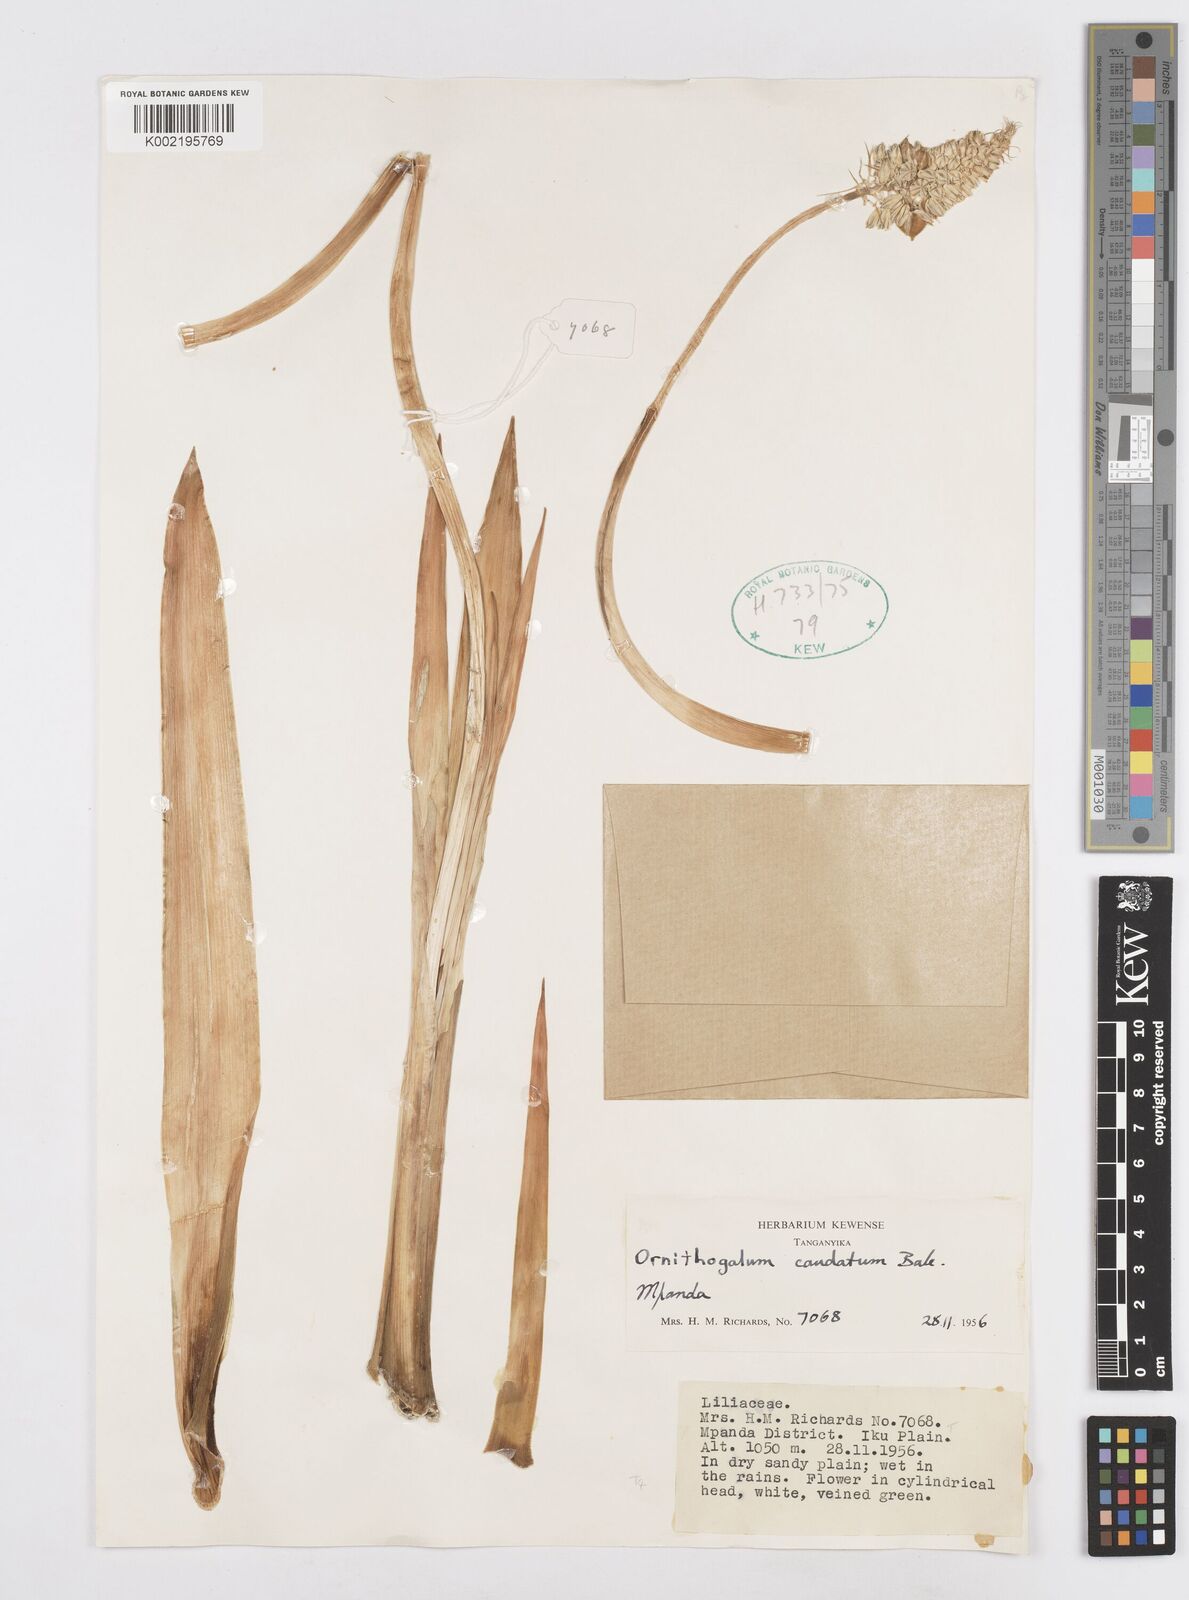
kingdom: Plantae
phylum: Tracheophyta
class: Liliopsida
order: Asparagales
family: Asparagaceae
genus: Albuca
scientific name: Albuca bracteata
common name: Sea-onion
